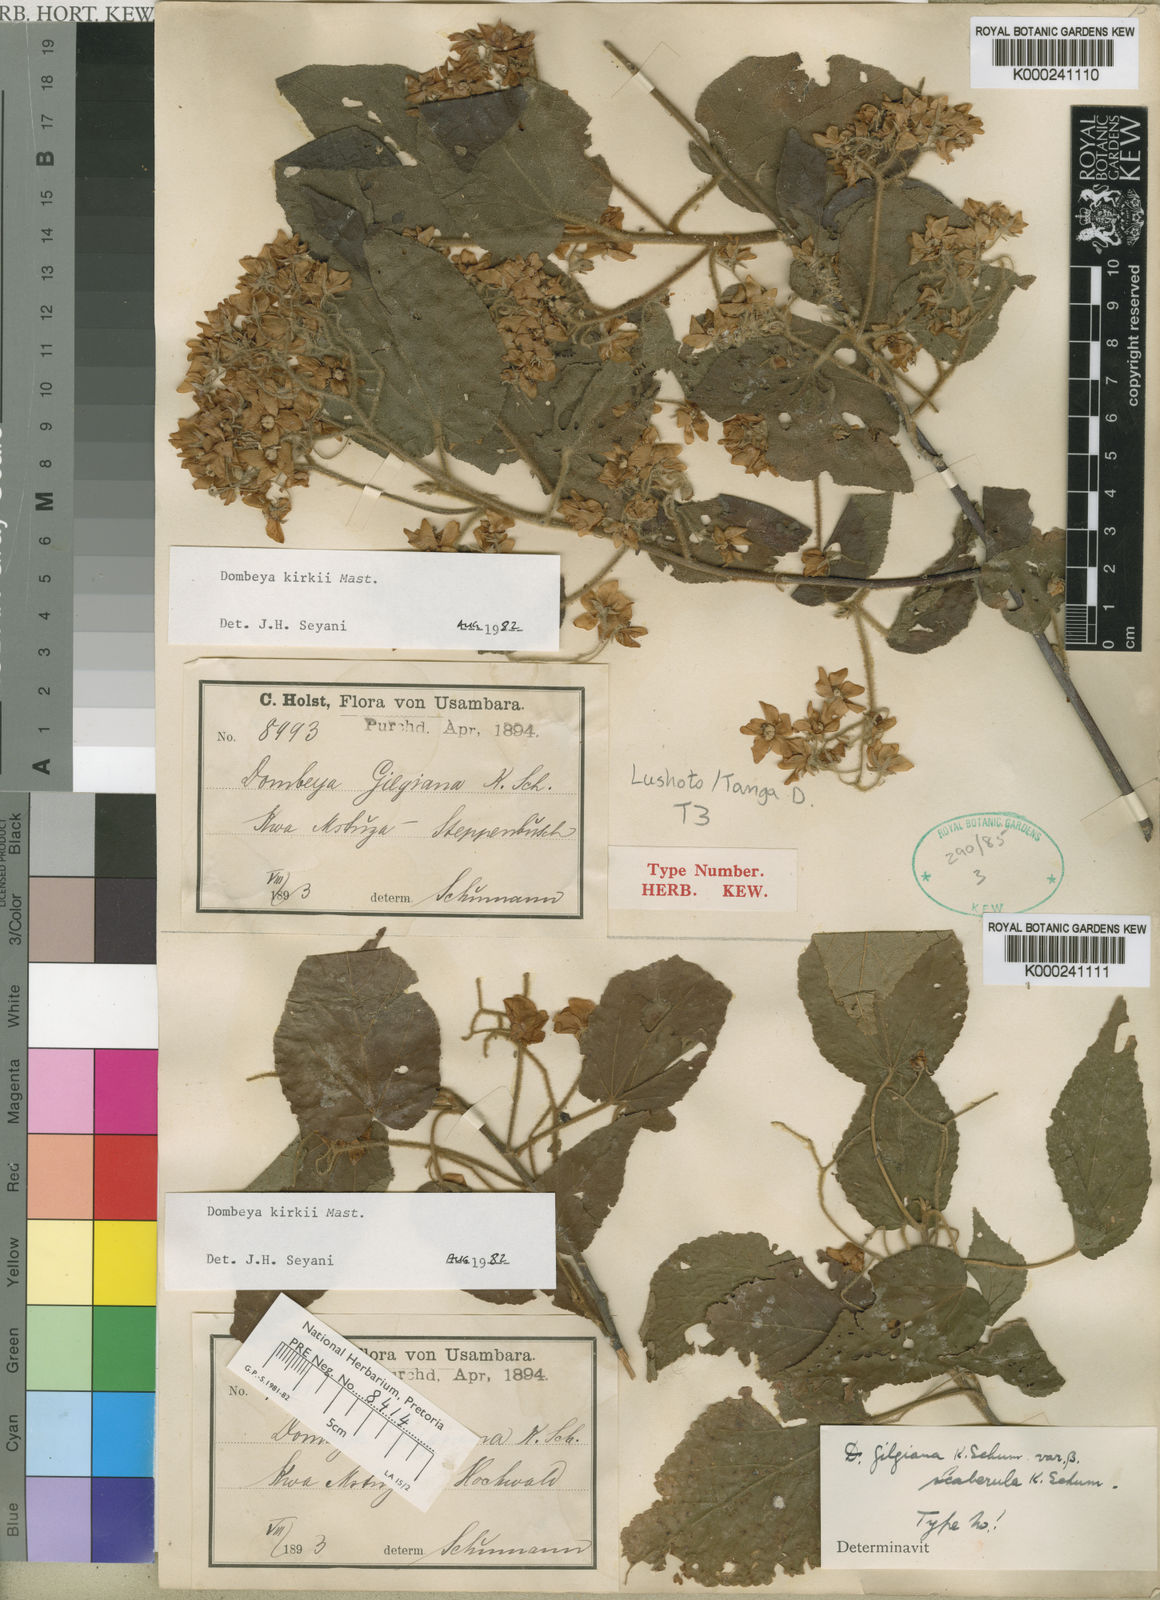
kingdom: Plantae
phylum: Tracheophyta
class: Magnoliopsida
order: Malvales
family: Malvaceae
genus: Dombeya
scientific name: Dombeya kirkii
